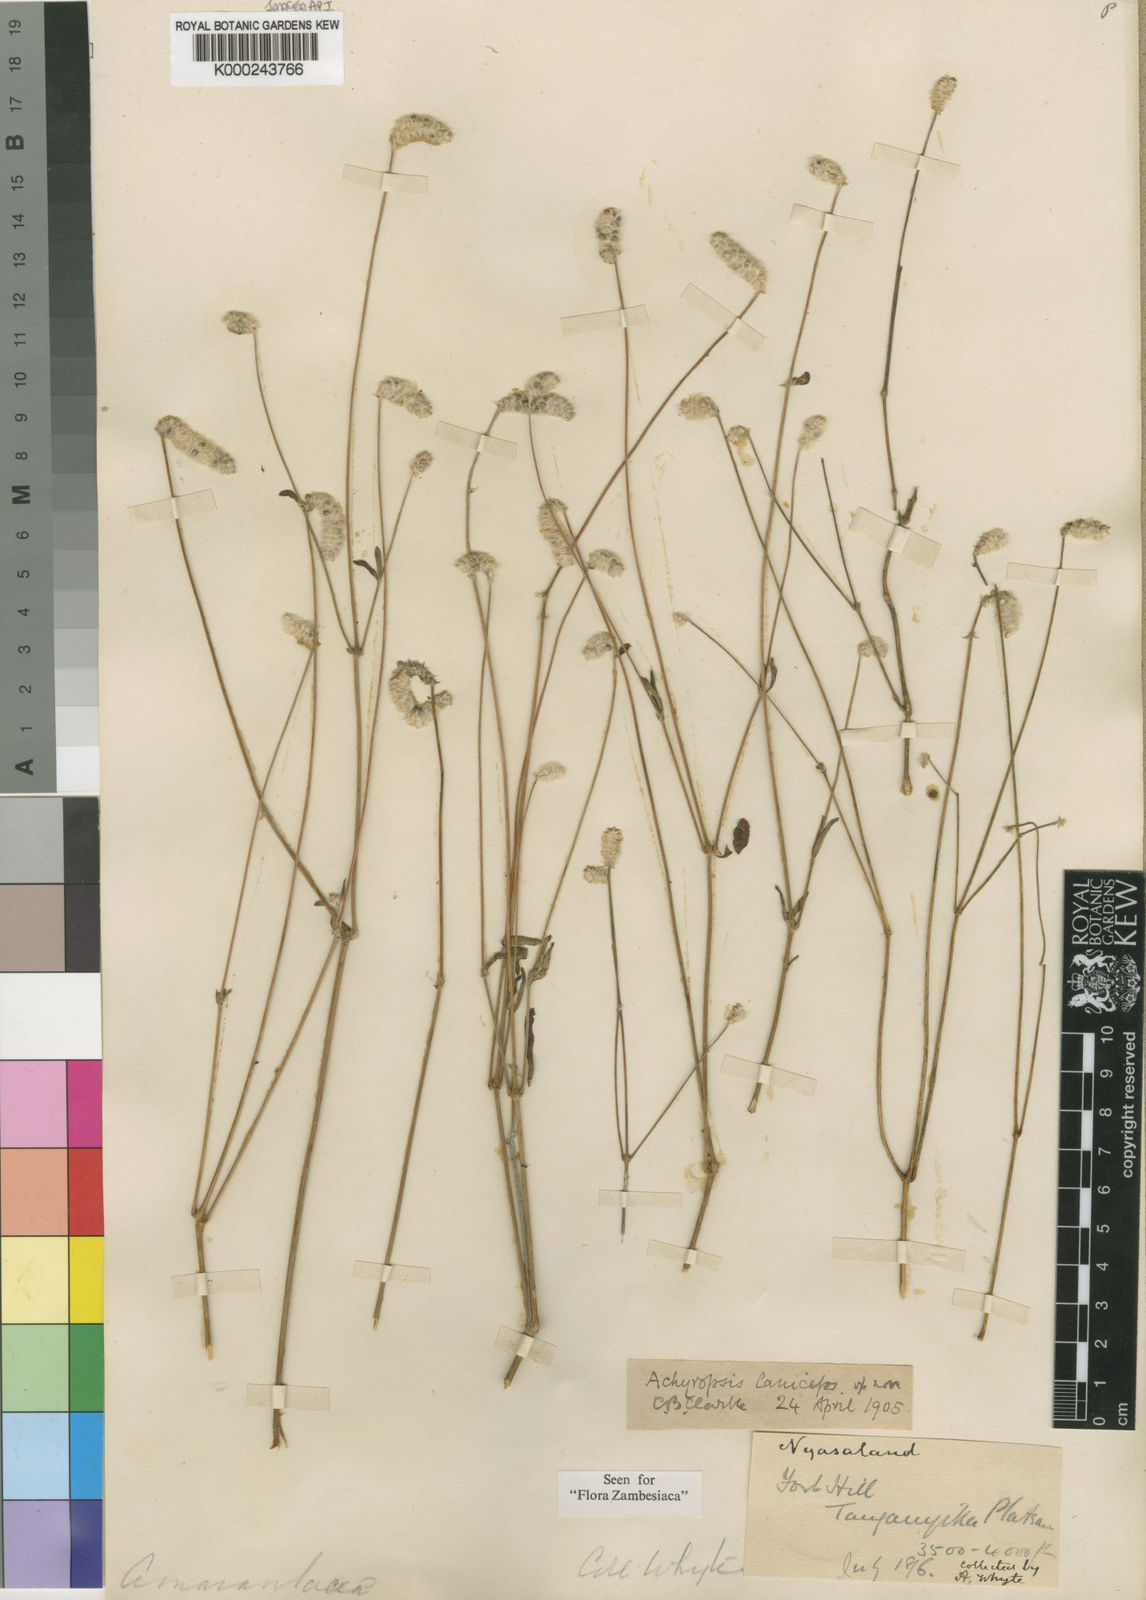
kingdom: Plantae
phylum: Tracheophyta
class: Magnoliopsida
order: Caryophyllales
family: Amaranthaceae
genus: Achyropsis
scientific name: Achyropsis laniceps
